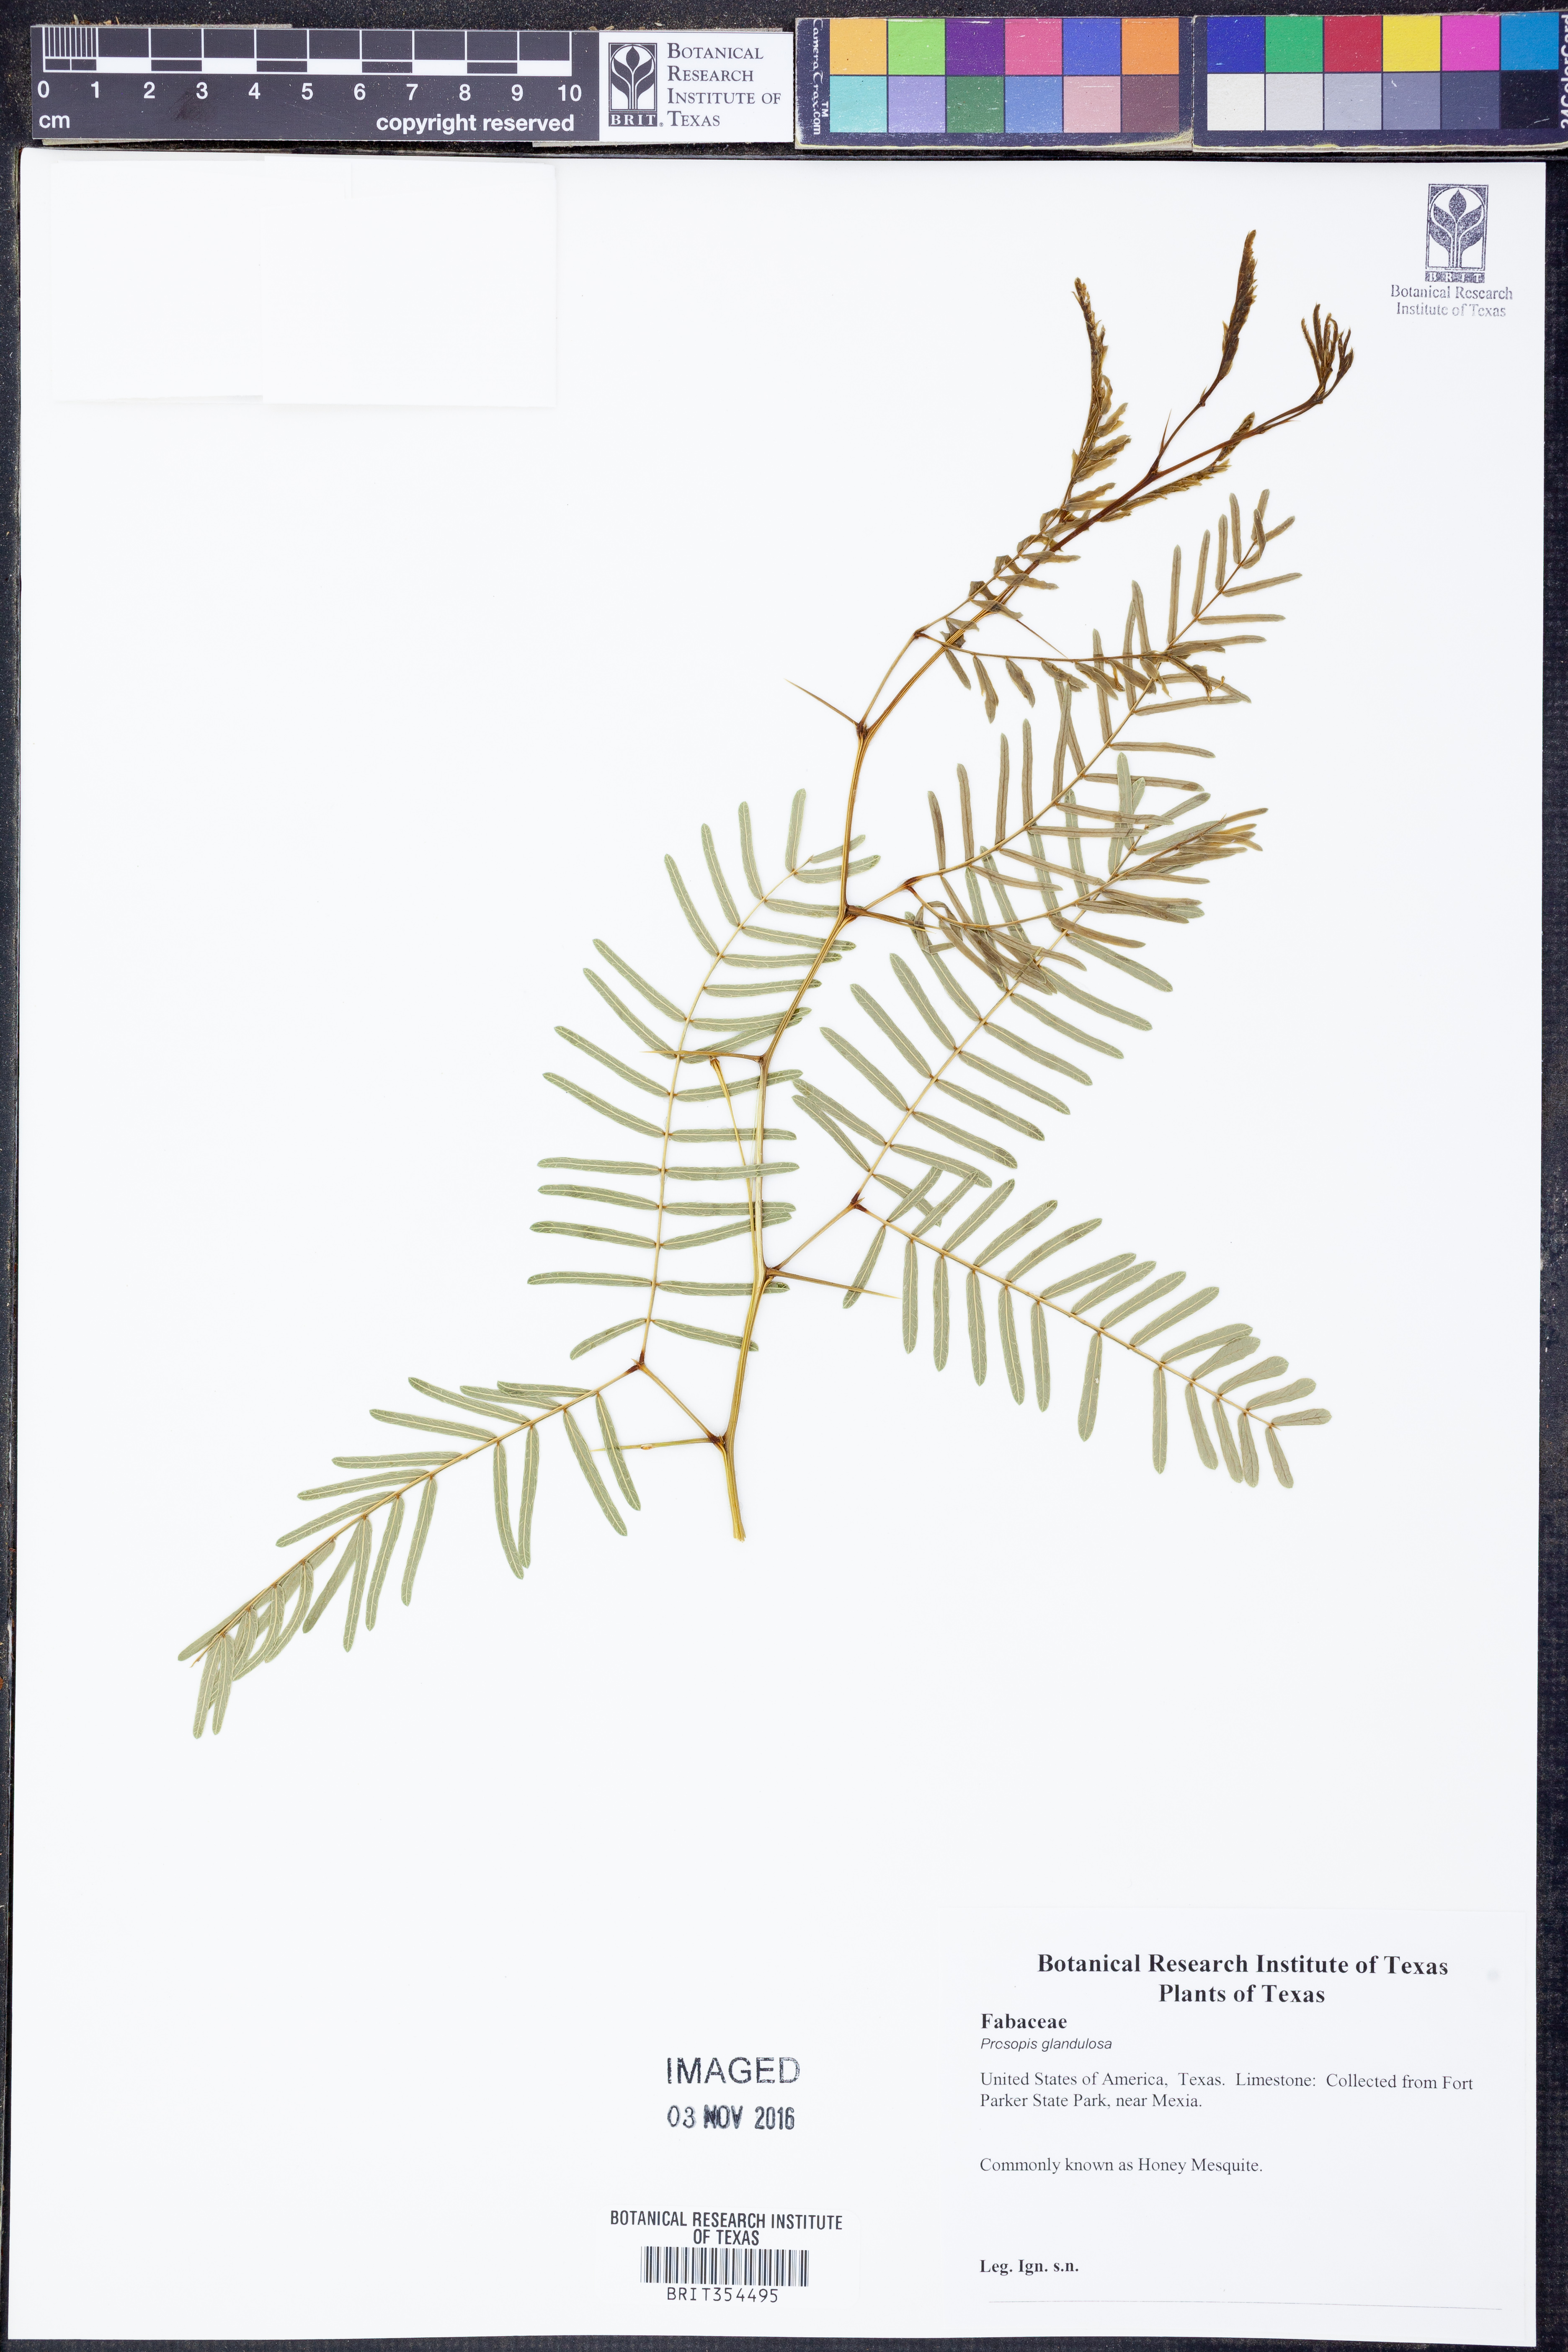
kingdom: Plantae
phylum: Tracheophyta
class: Magnoliopsida
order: Fabales
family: Fabaceae
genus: Prosopis
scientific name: Prosopis glandulosa
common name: Honey mesquite
